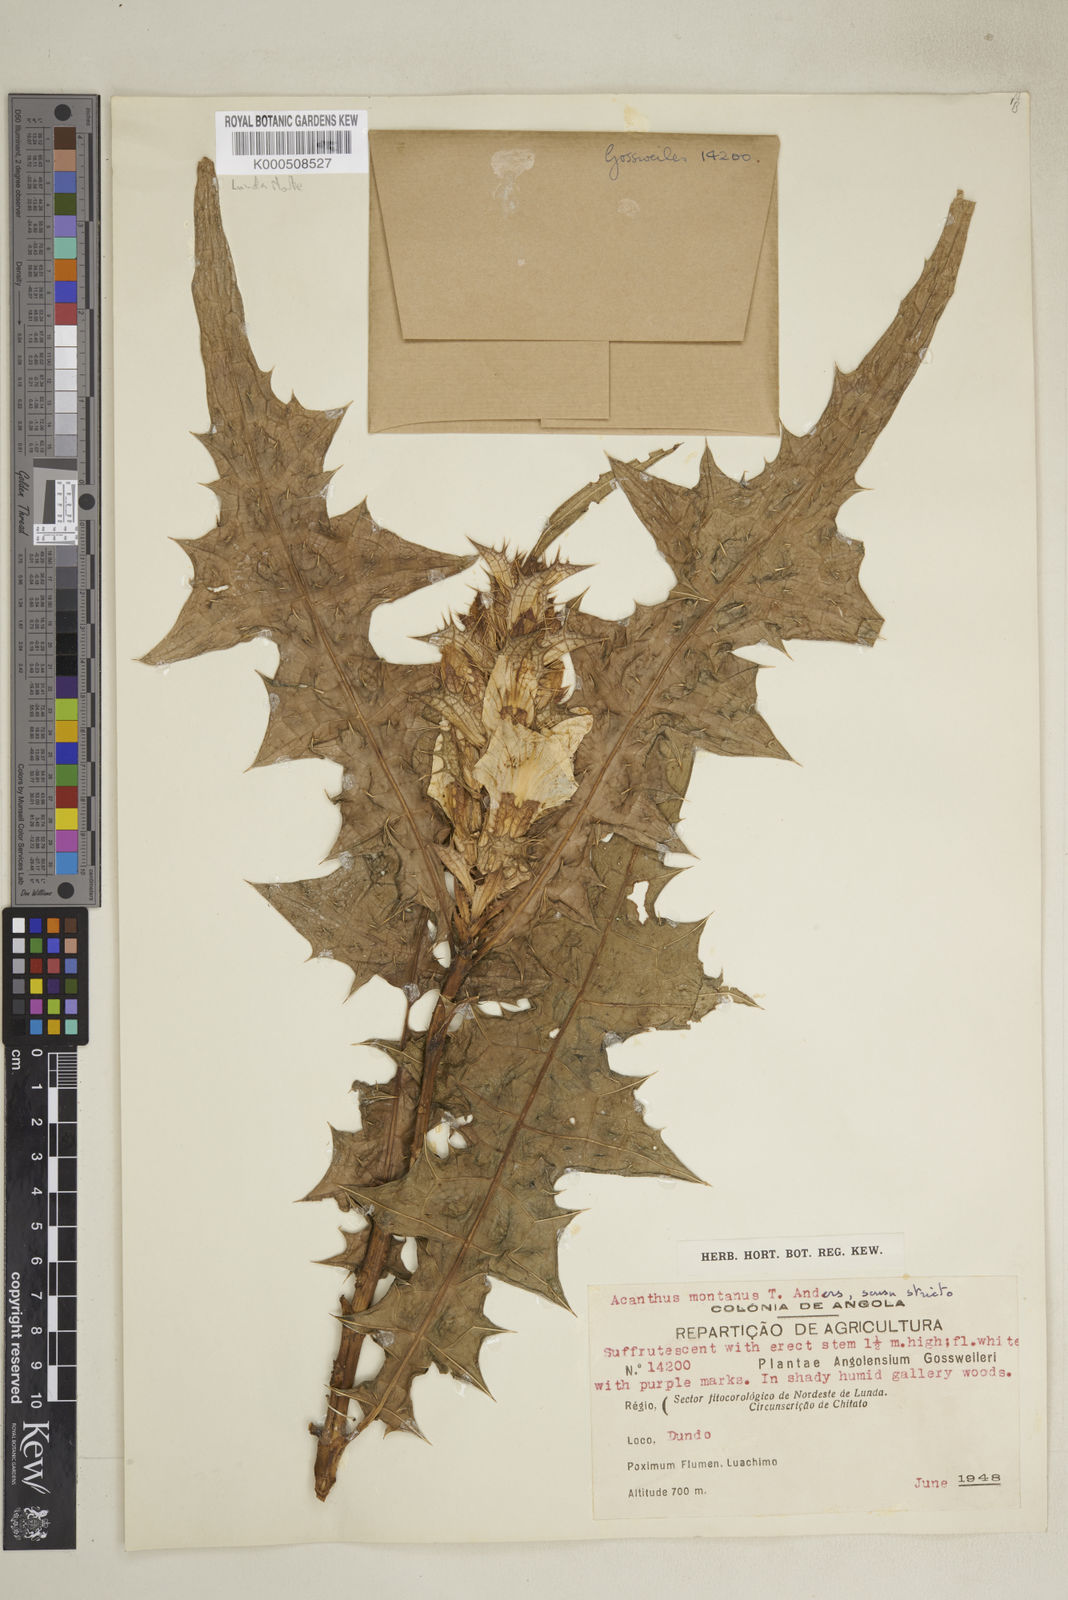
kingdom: Plantae
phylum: Tracheophyta
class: Magnoliopsida
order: Lamiales
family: Acanthaceae
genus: Acanthus
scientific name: Acanthus montanus
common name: Mountain thistle
